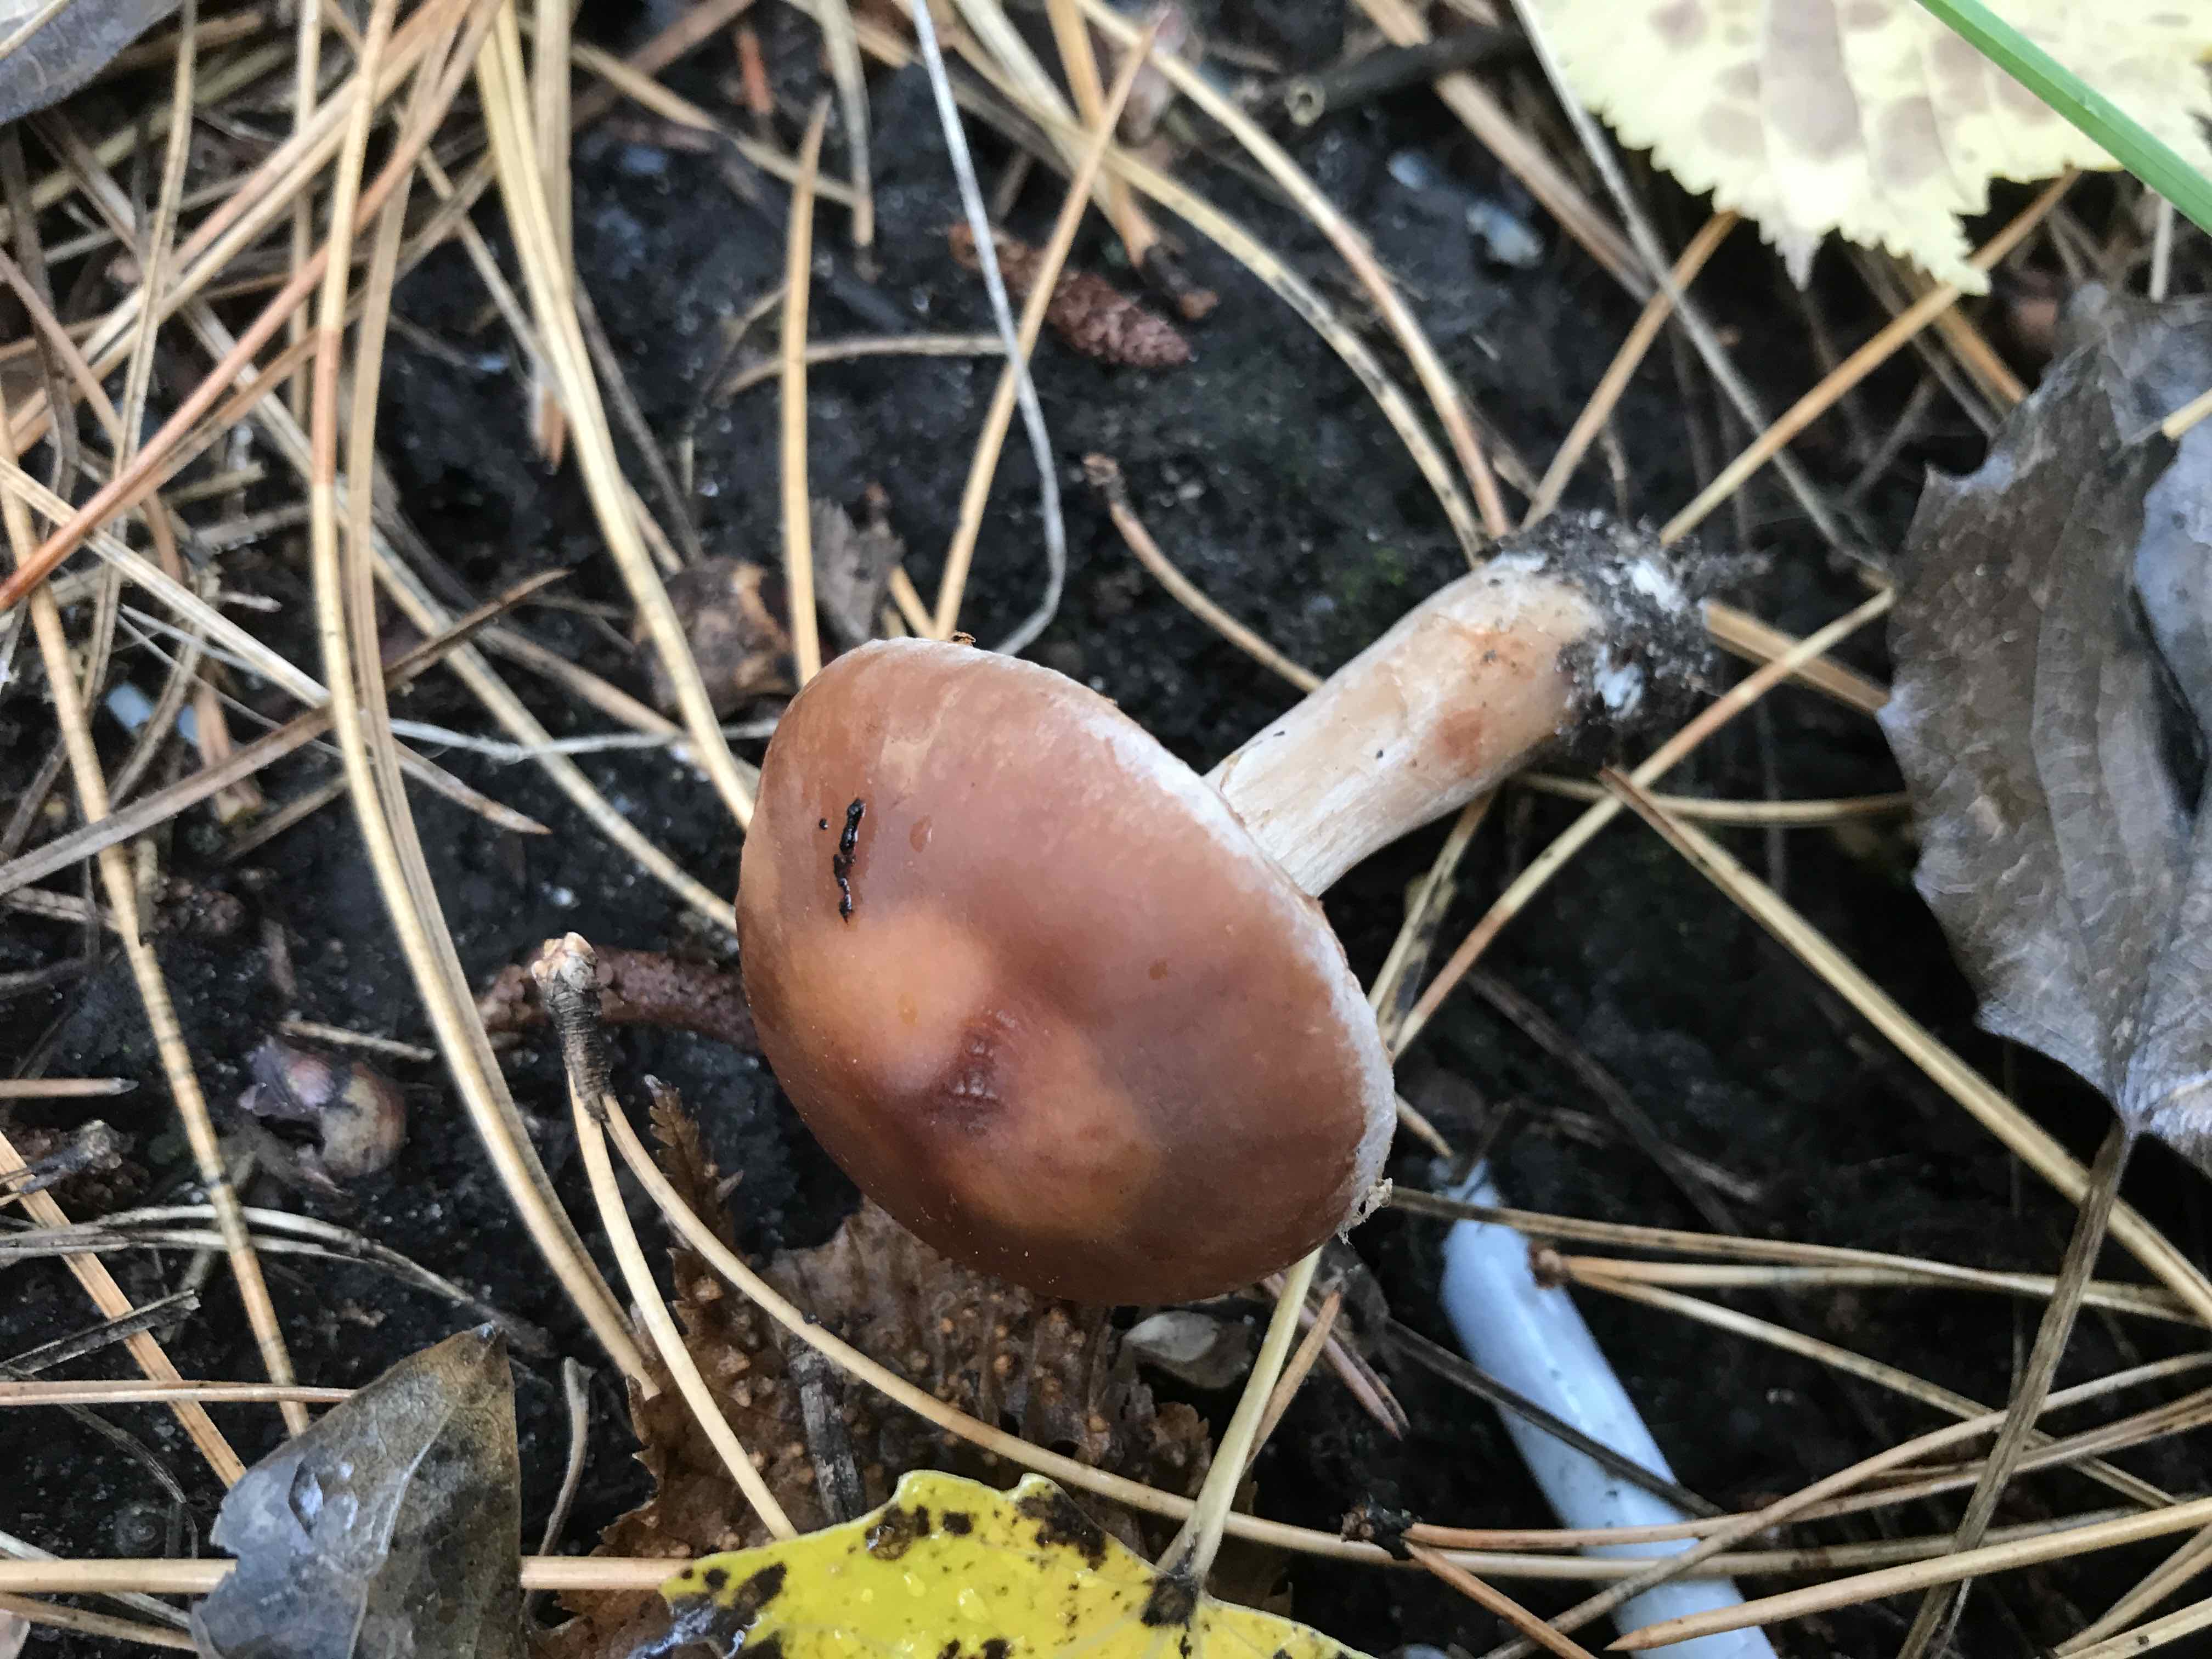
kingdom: Fungi
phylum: Basidiomycota
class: Agaricomycetes
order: Agaricales
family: Cortinariaceae
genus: Cortinarius
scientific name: Cortinarius
